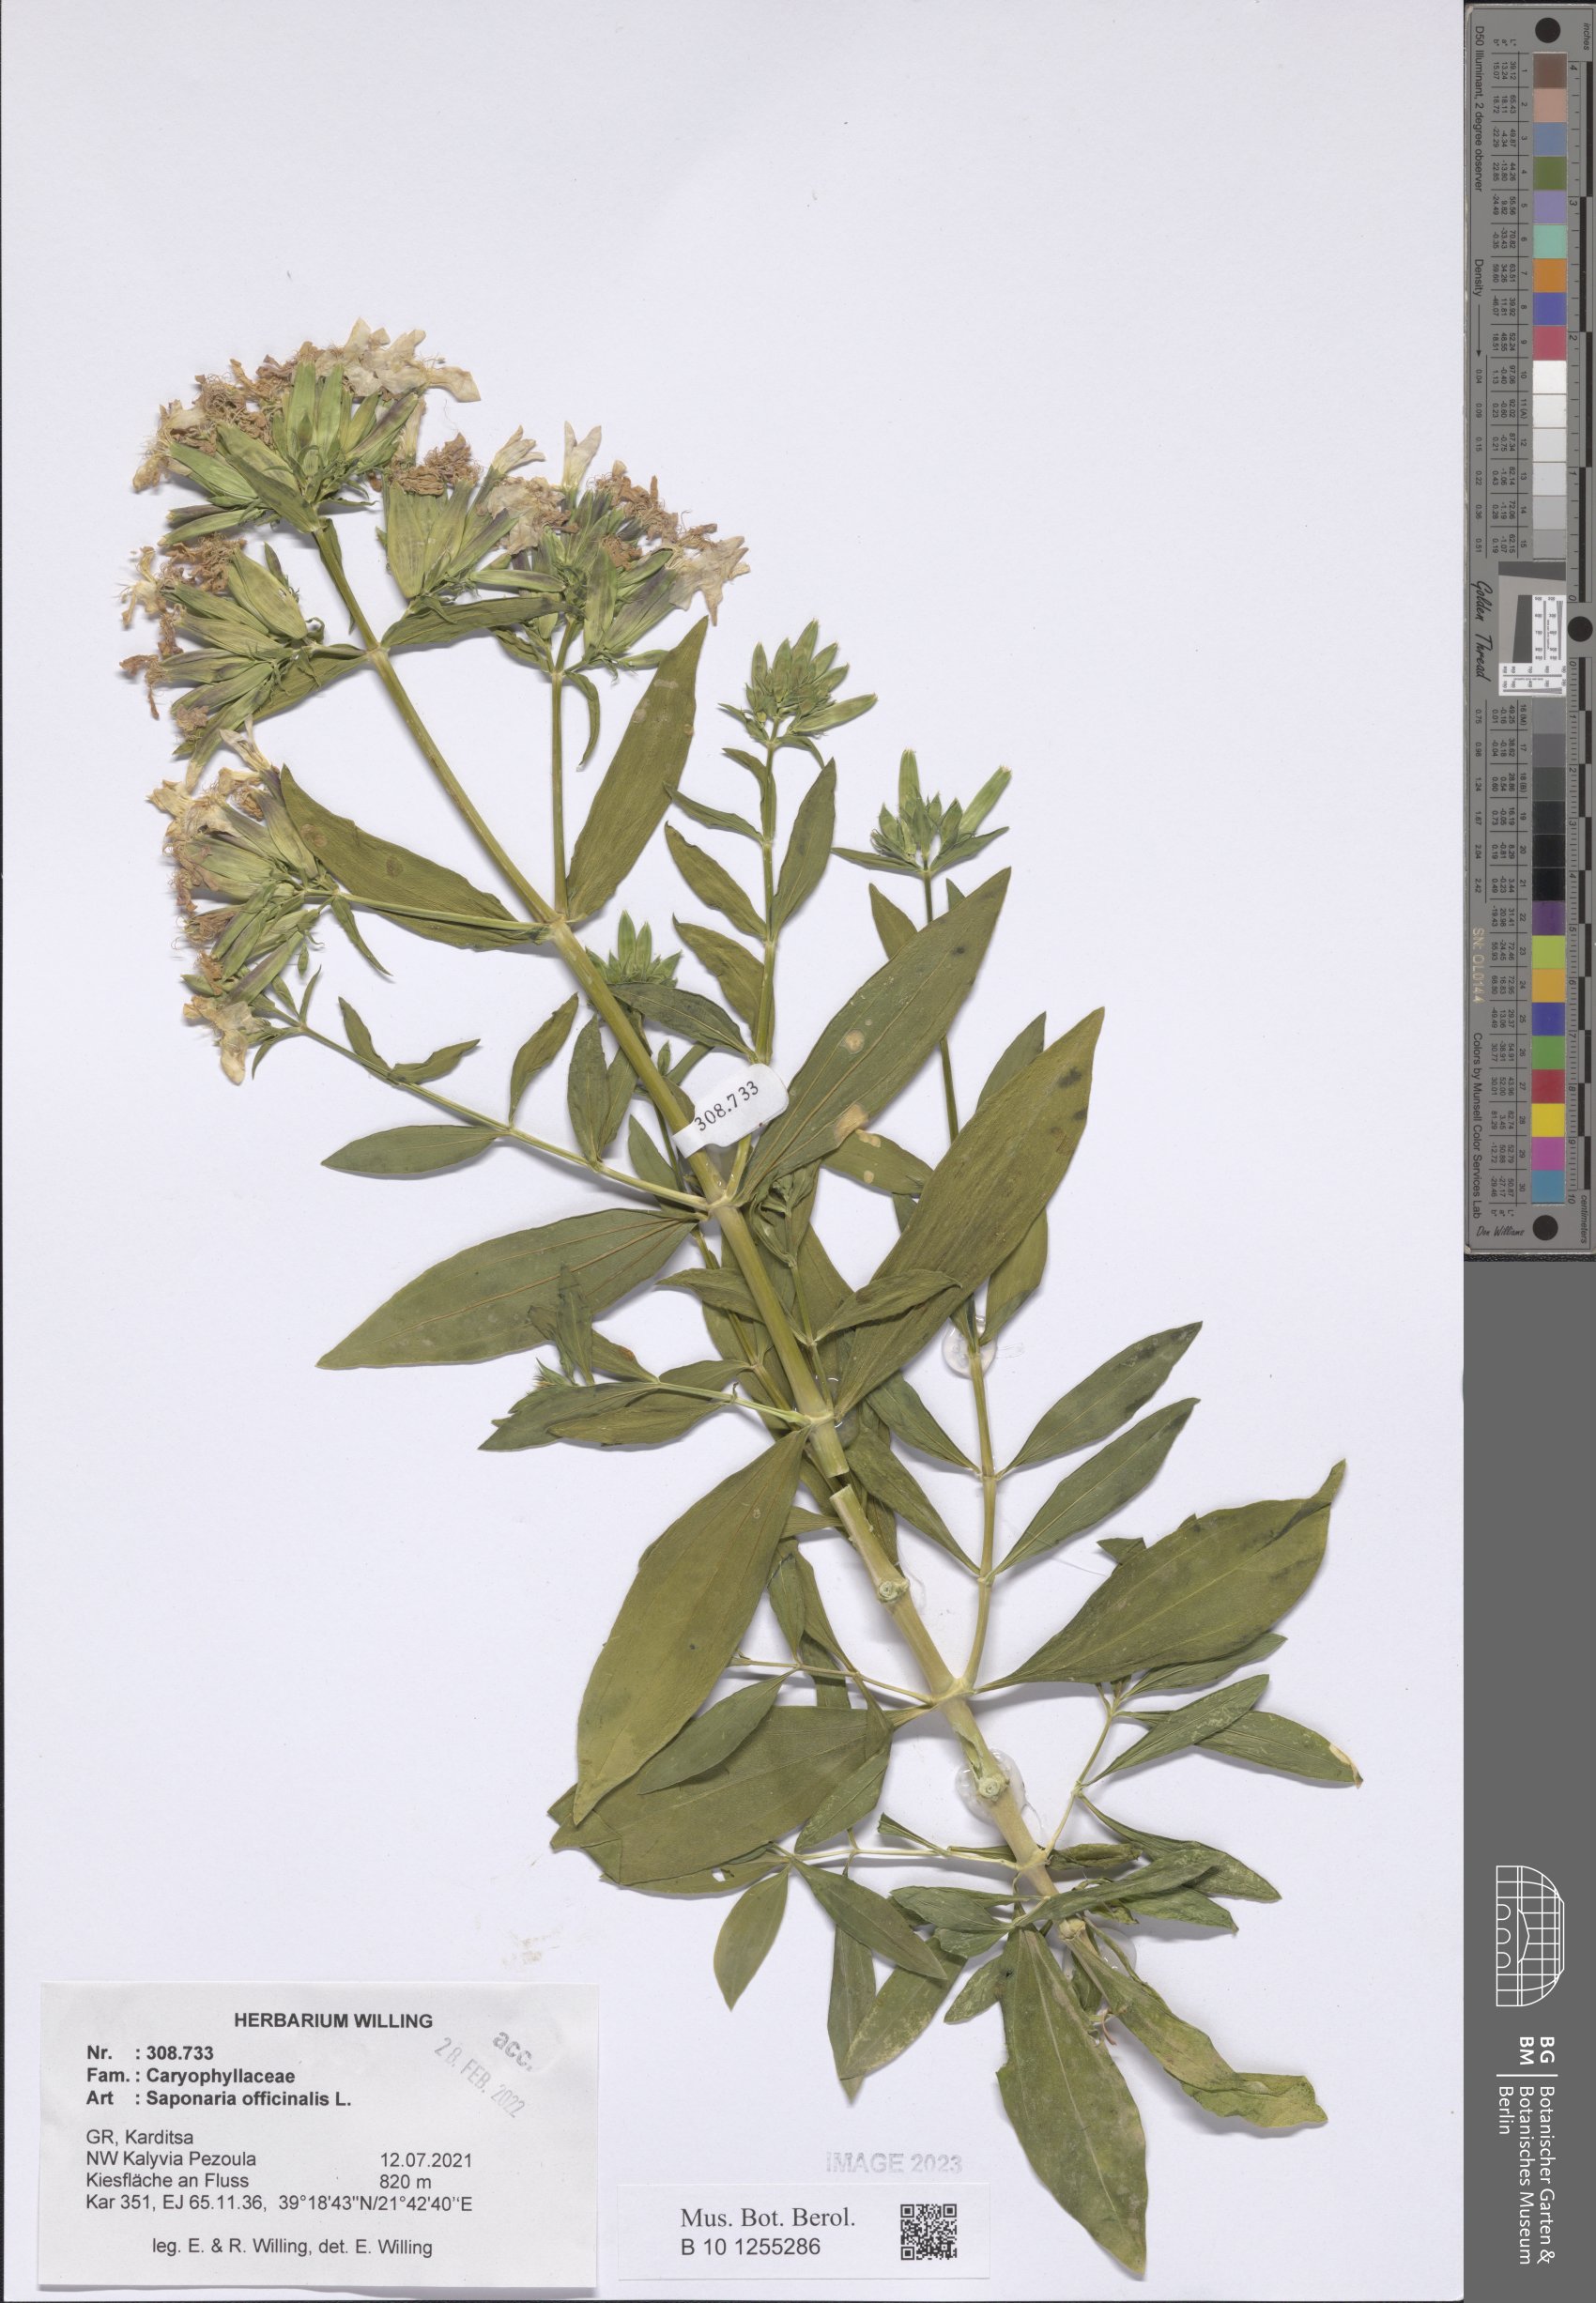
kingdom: Plantae
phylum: Tracheophyta
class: Magnoliopsida
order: Caryophyllales
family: Caryophyllaceae
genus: Saponaria
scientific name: Saponaria officinalis
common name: Soapwort
